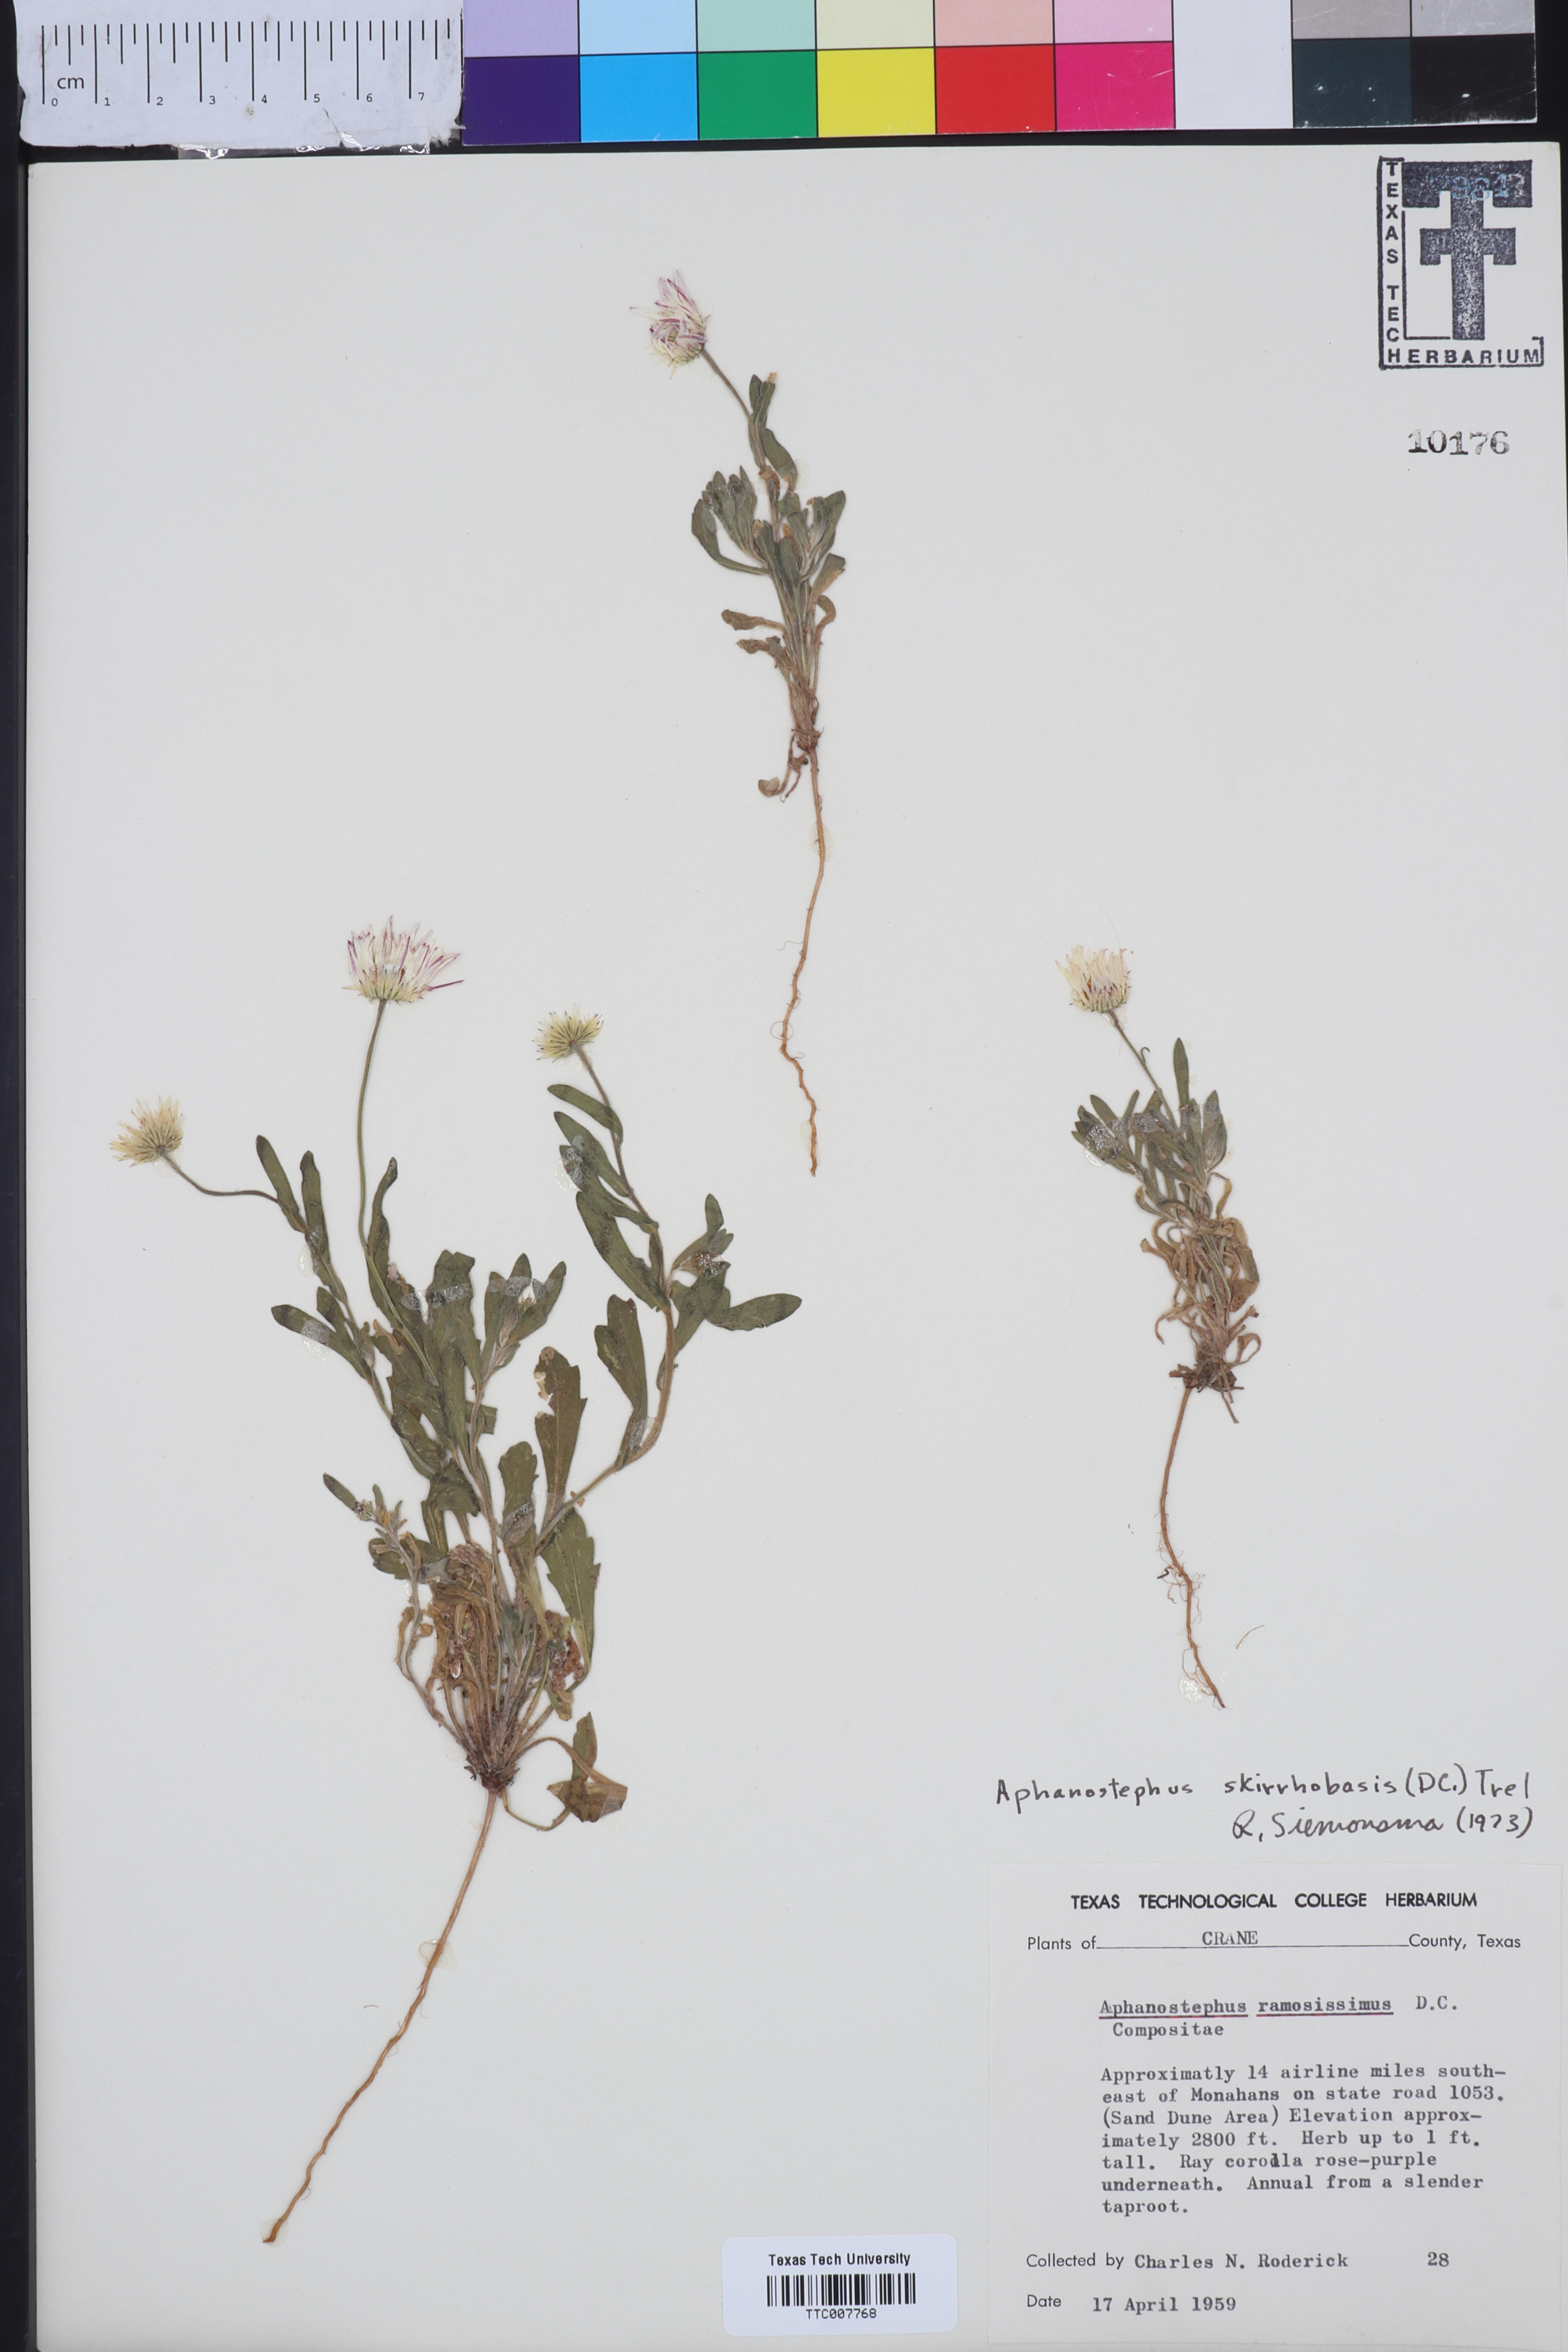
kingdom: Plantae
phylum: Tracheophyta
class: Magnoliopsida
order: Asterales
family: Asteraceae
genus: Aphanostephus
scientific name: Aphanostephus skirrhobasis
